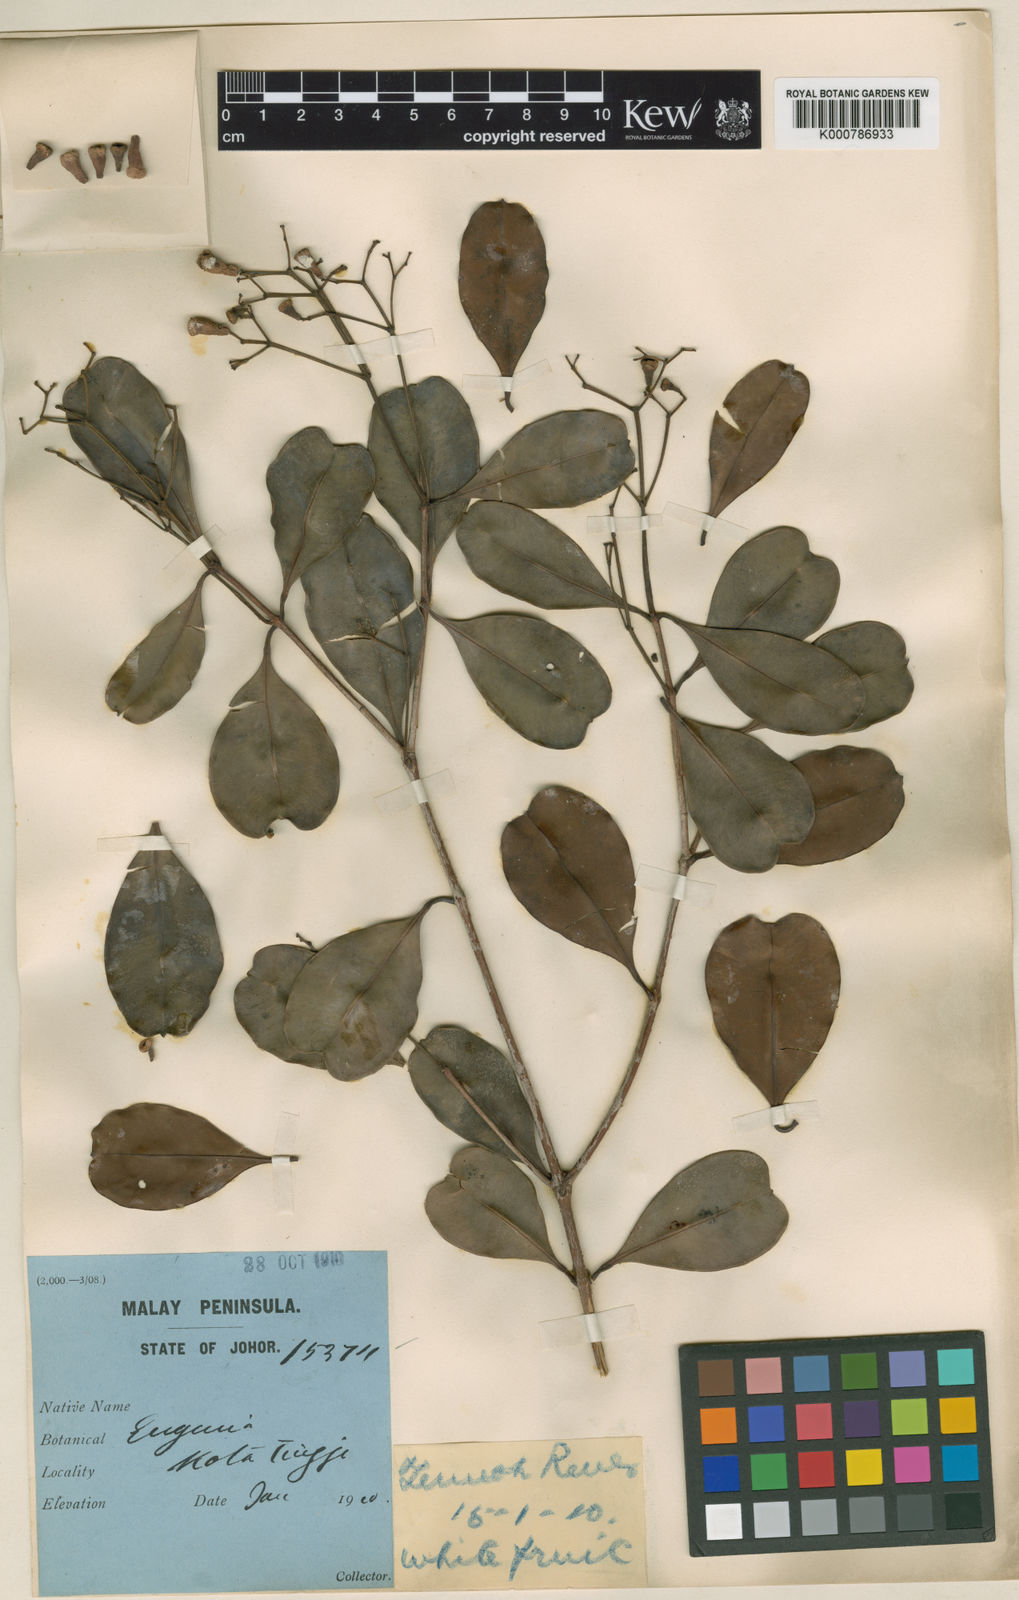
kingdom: Plantae
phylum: Tracheophyta
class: Magnoliopsida
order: Myrtales
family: Myrtaceae
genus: Syzygium
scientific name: Syzygium incarnatum
